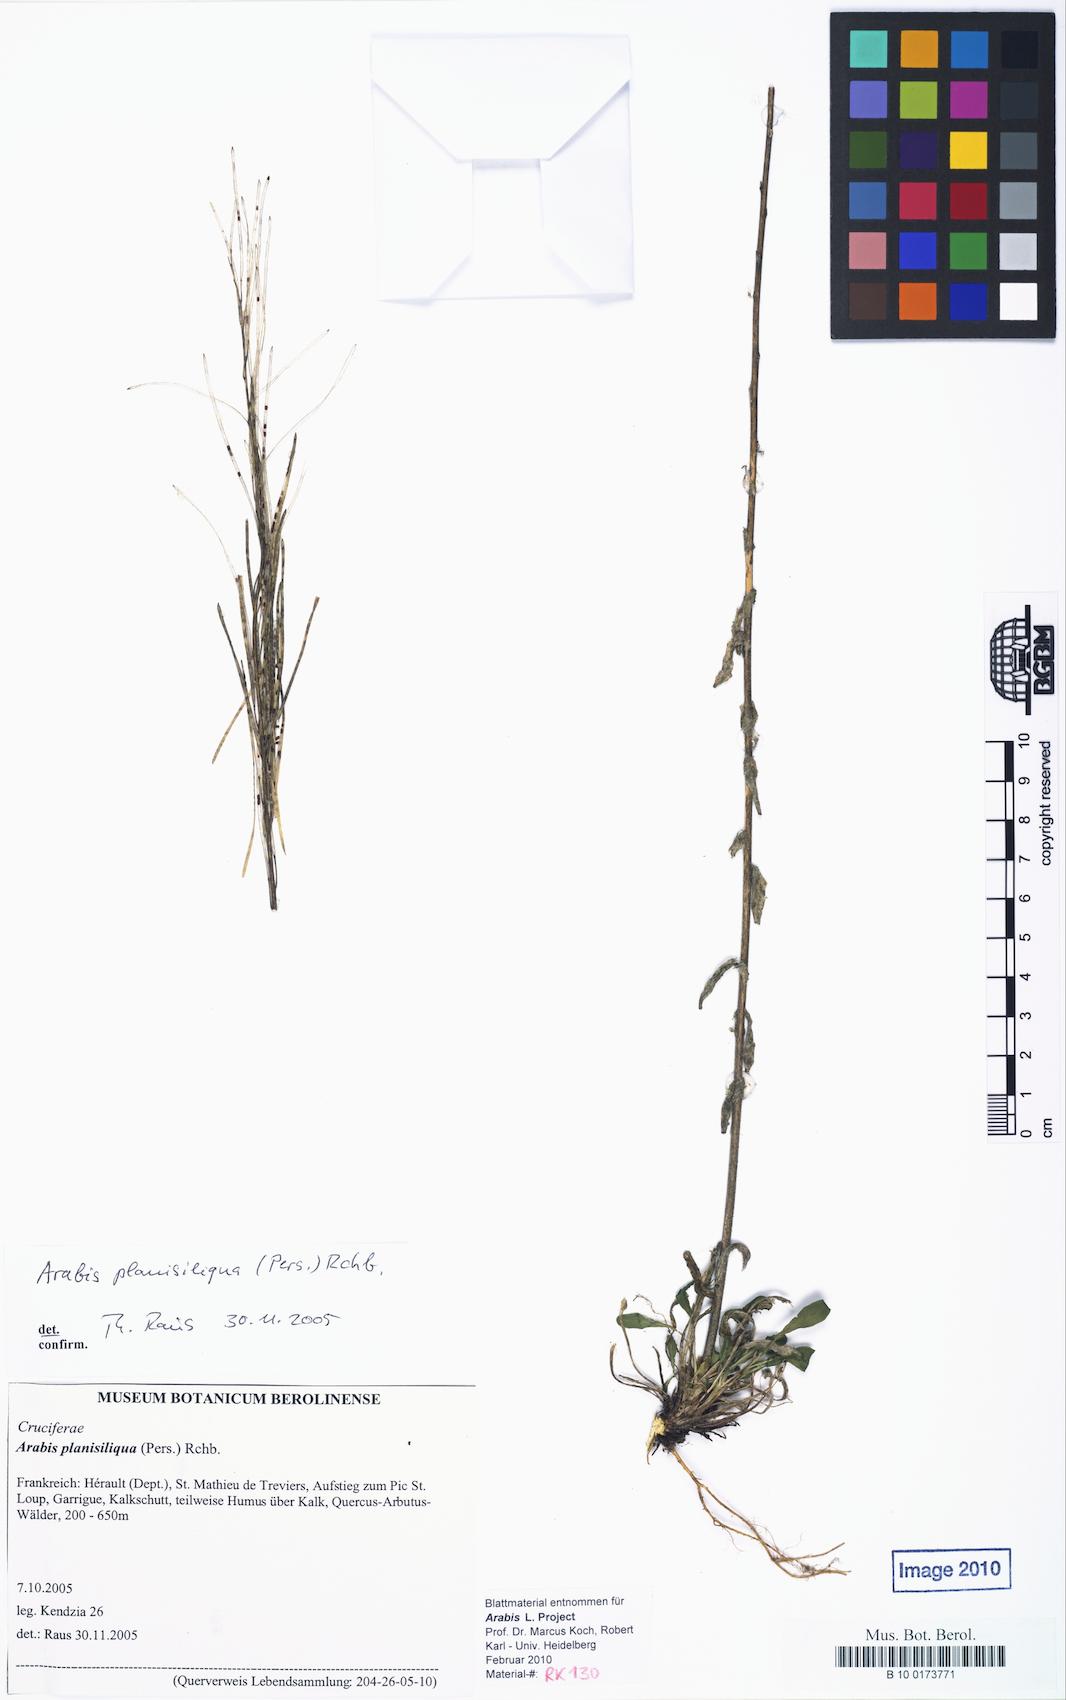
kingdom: Plantae
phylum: Tracheophyta
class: Magnoliopsida
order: Brassicales
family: Brassicaceae
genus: Arabis
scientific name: Arabis planisiliqua
